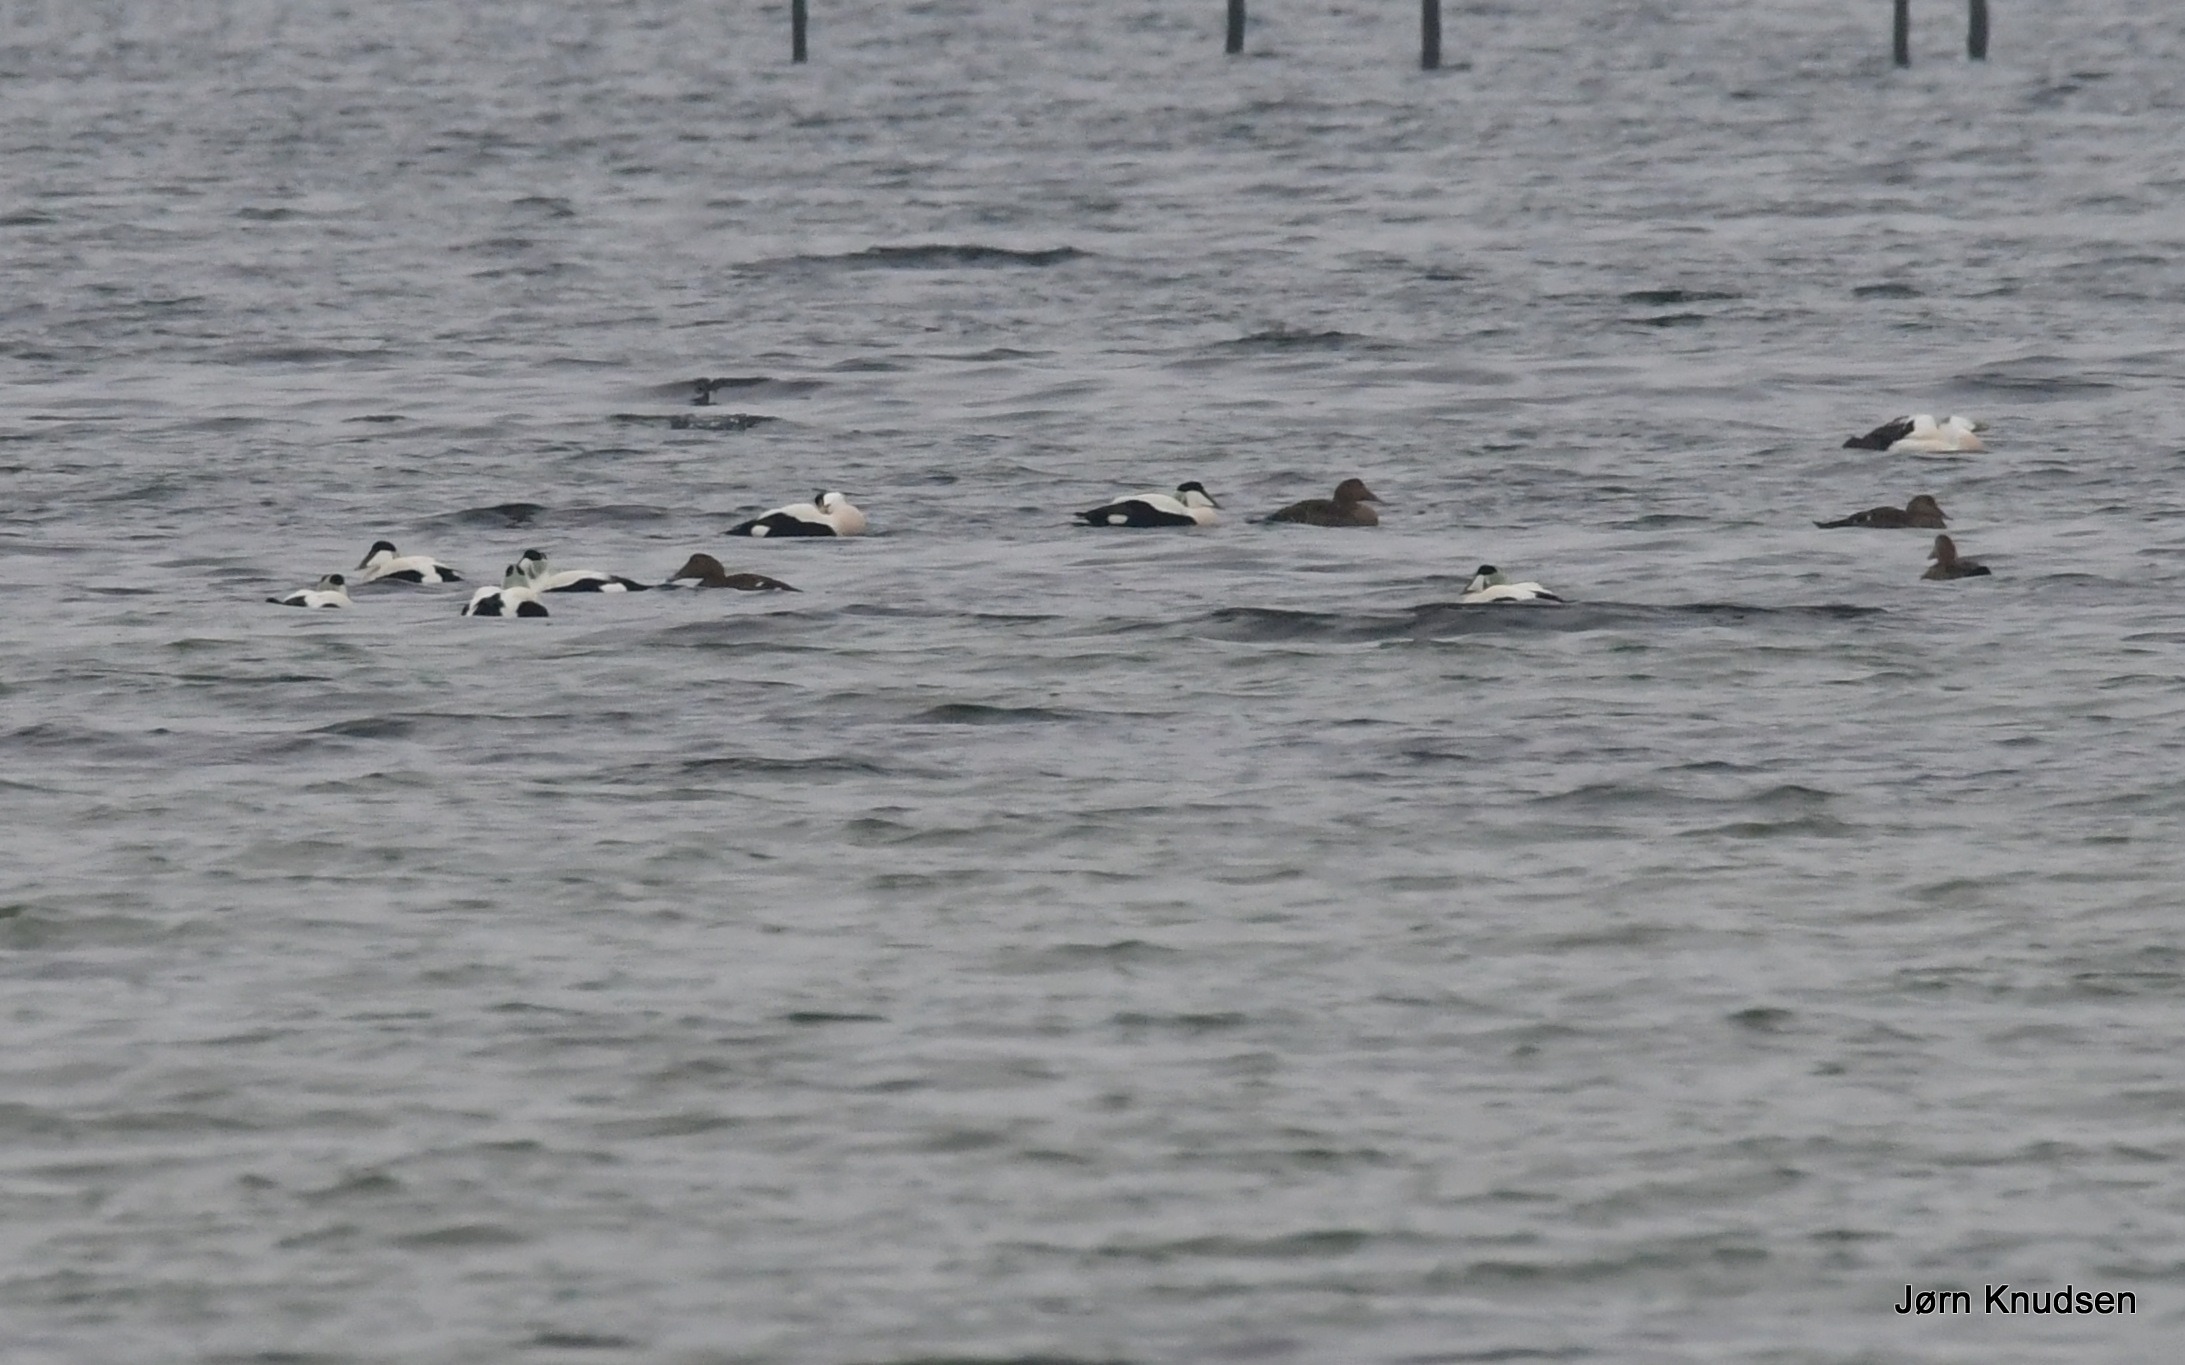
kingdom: Animalia
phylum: Chordata
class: Aves
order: Anseriformes
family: Anatidae
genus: Somateria
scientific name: Somateria mollissima
